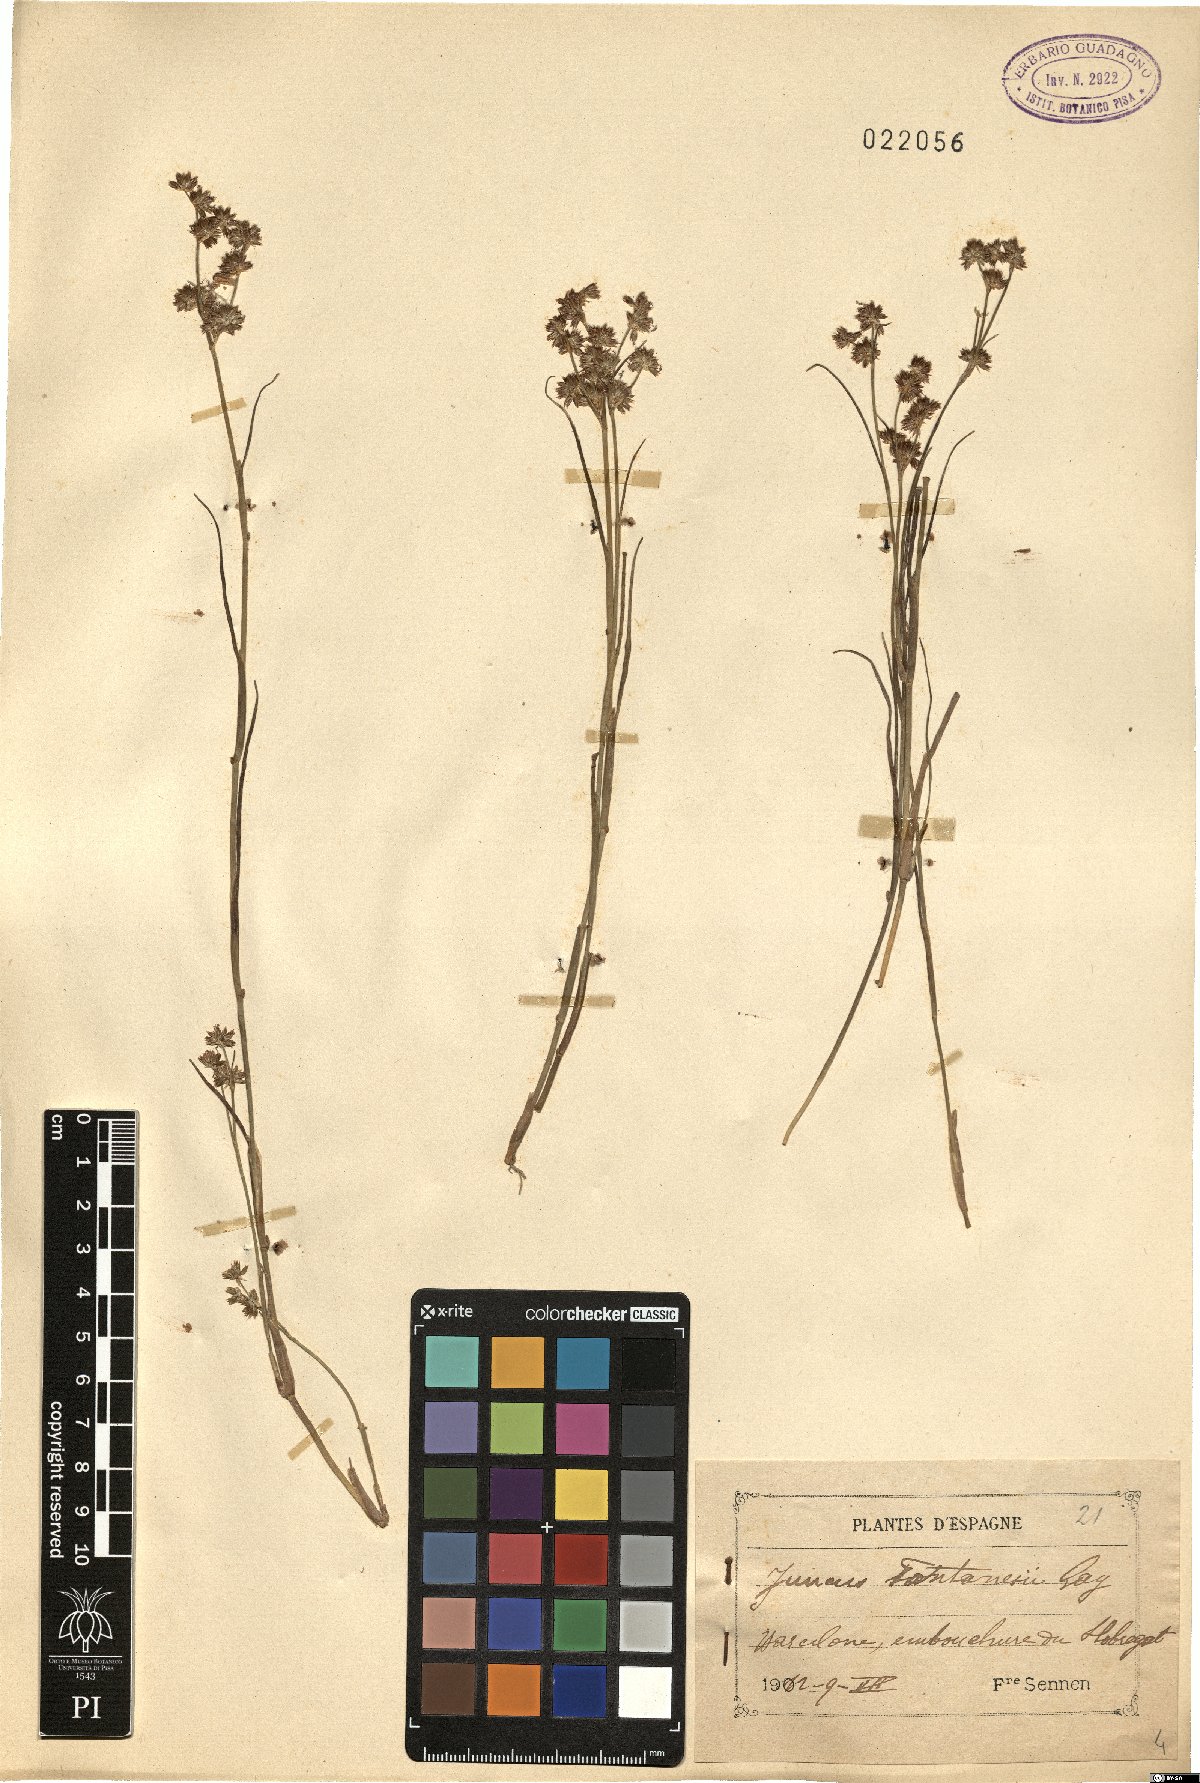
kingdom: Plantae
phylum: Tracheophyta
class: Liliopsida
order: Poales
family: Juncaceae
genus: Juncus
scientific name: Juncus fontanesii
